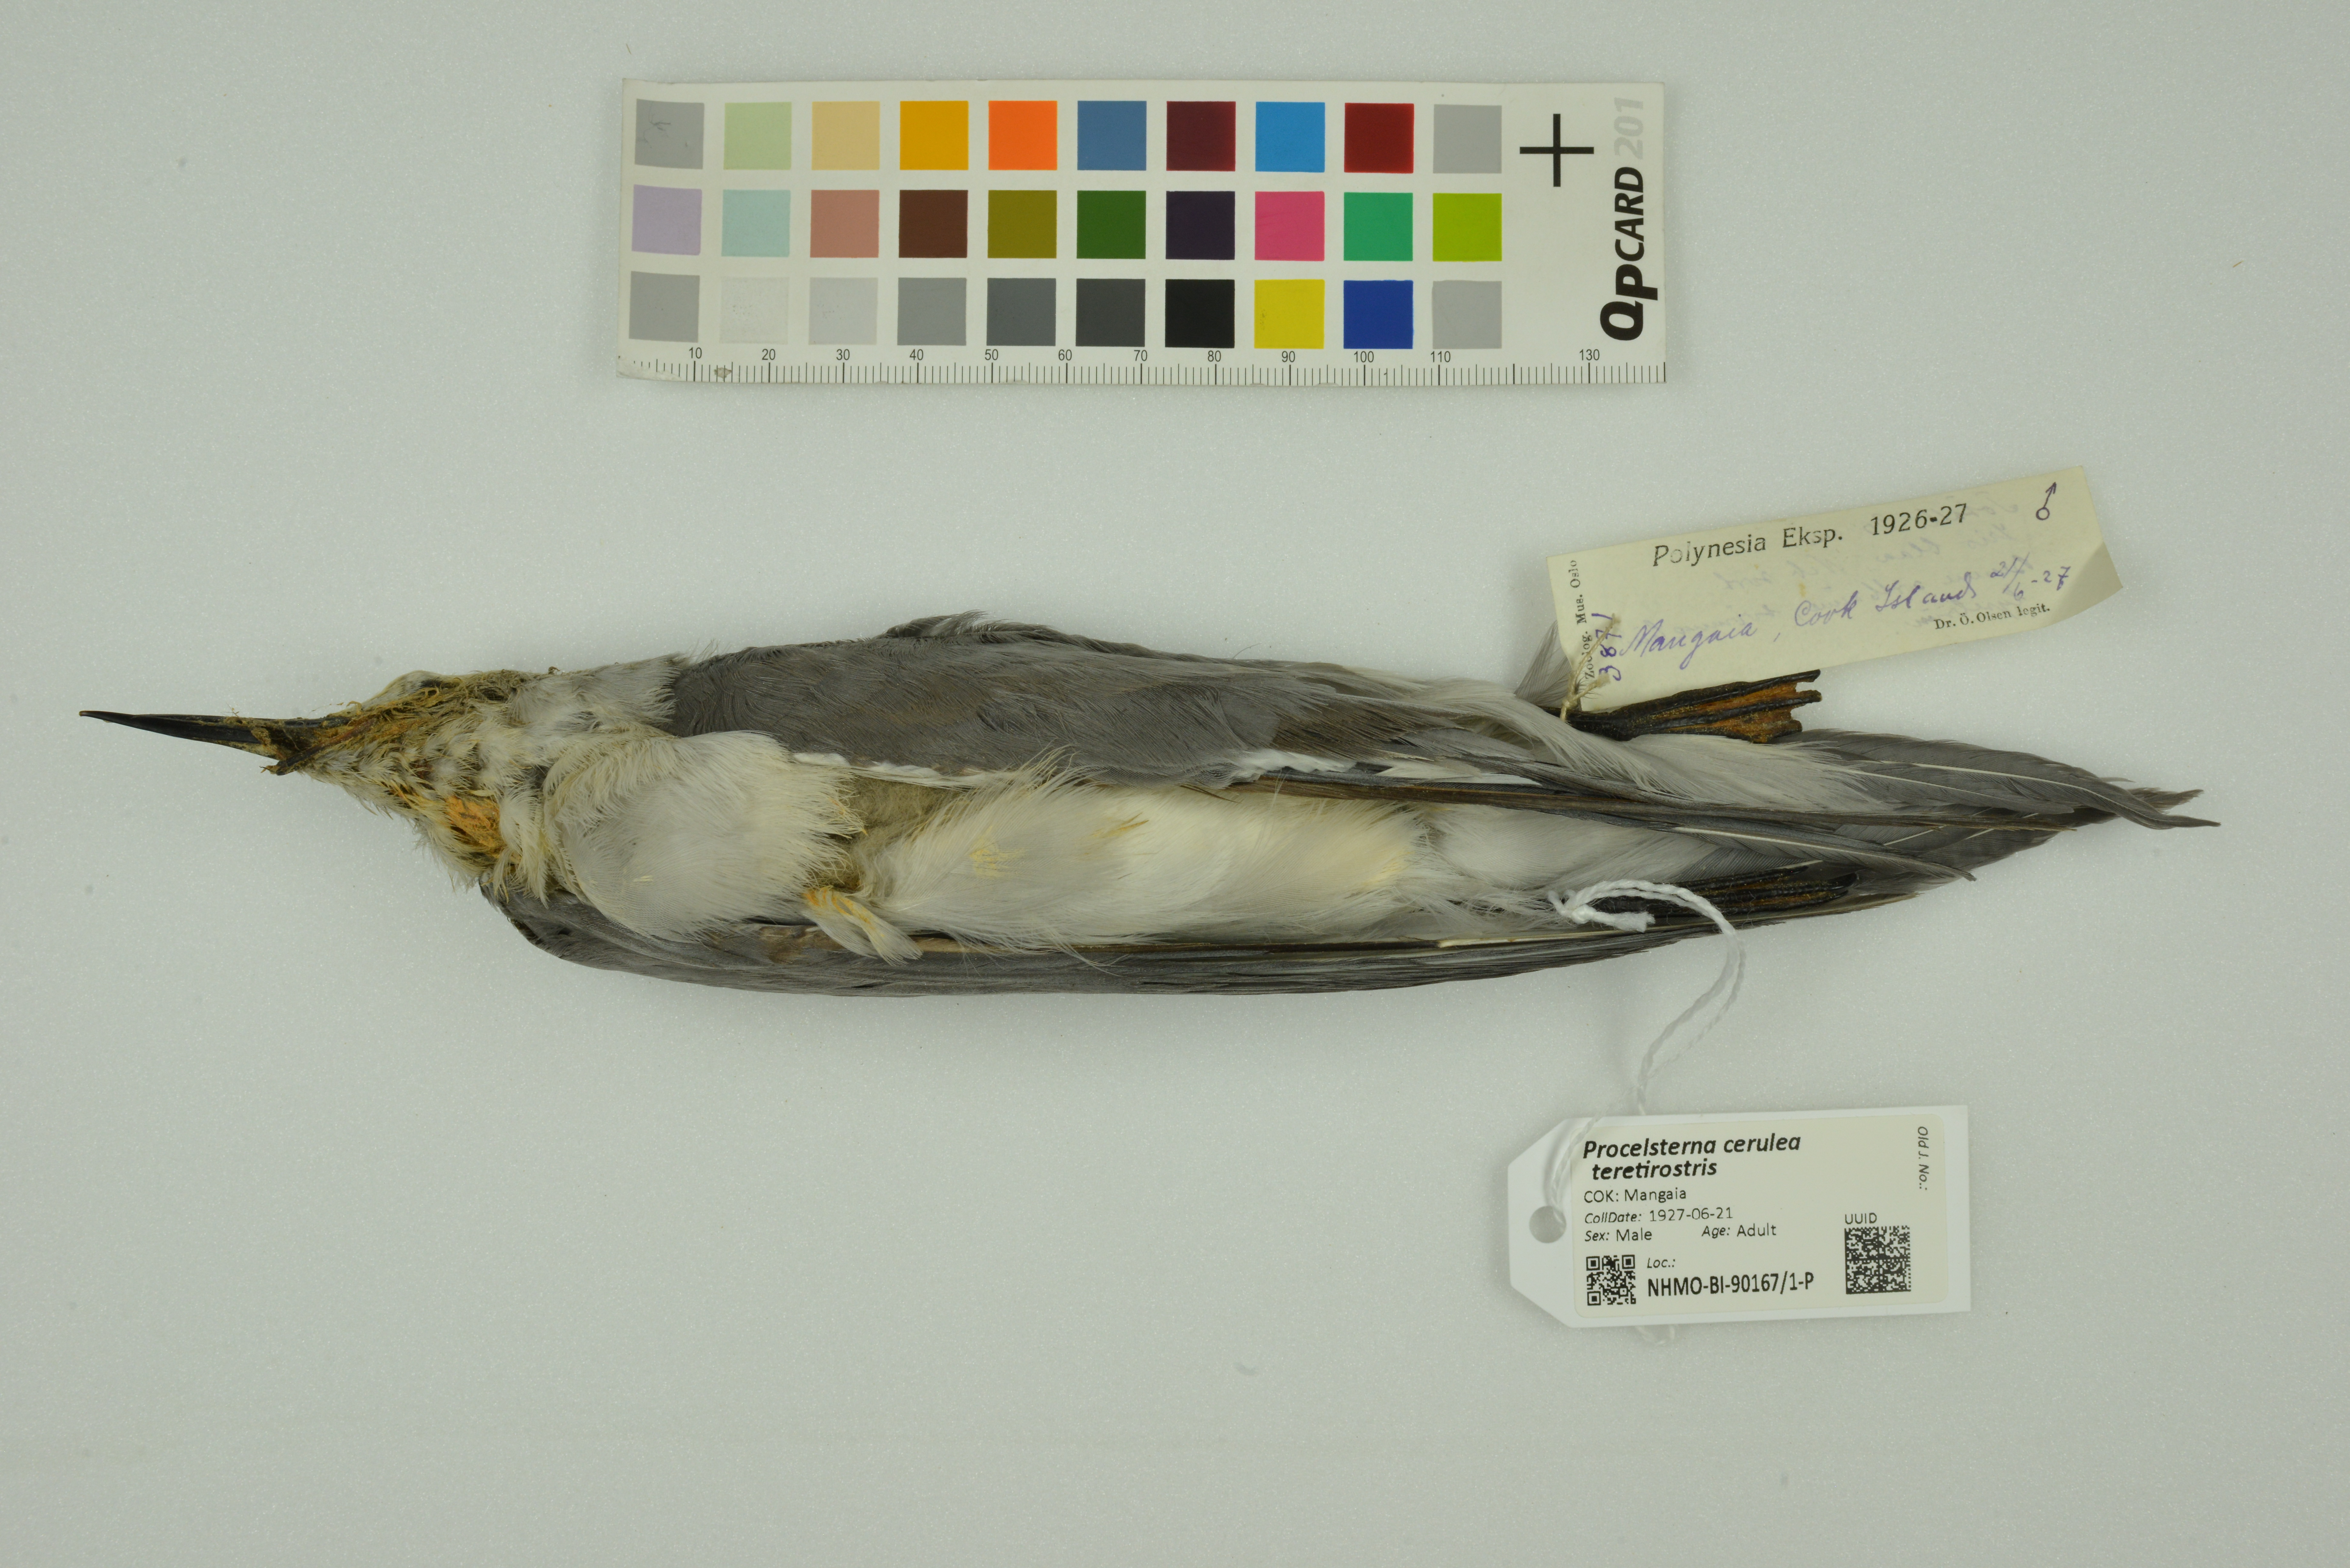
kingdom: Animalia
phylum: Chordata
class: Aves
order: Charadriiformes
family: Laridae
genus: Anous
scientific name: Anous ceruleus
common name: Blue-gray noddy
